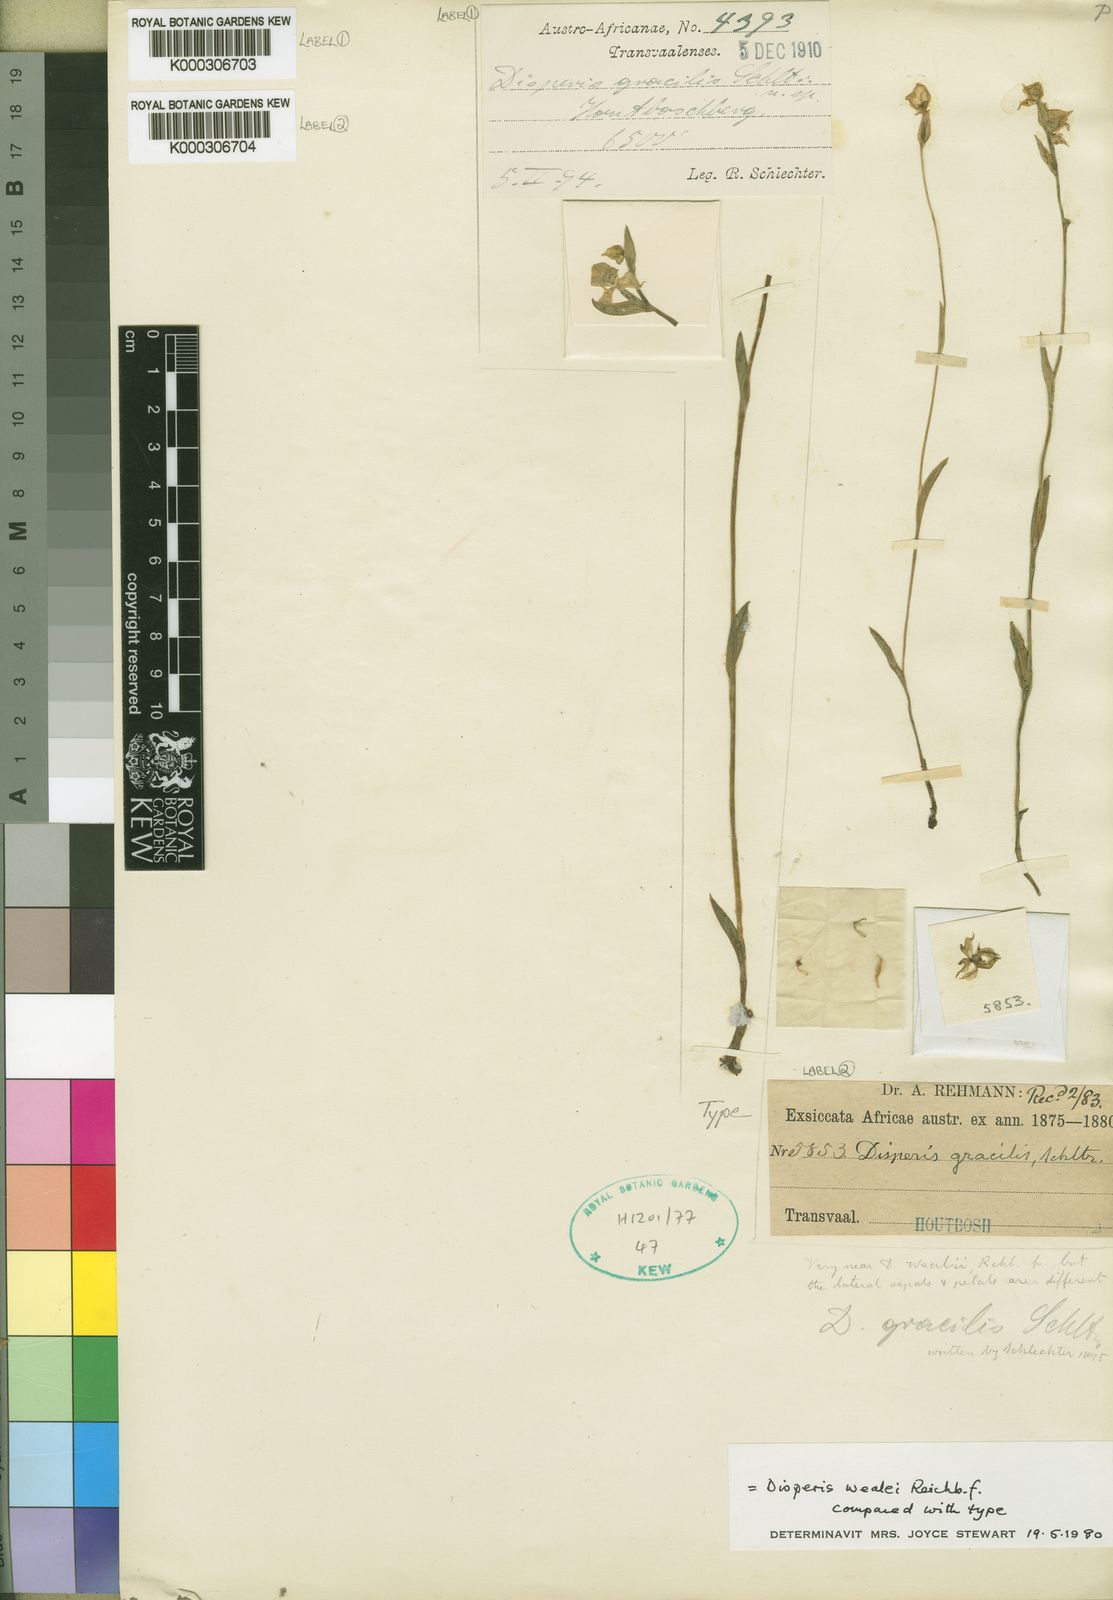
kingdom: Plantae
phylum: Tracheophyta
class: Liliopsida
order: Asparagales
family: Orchidaceae
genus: Disperis
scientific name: Disperis wealei
